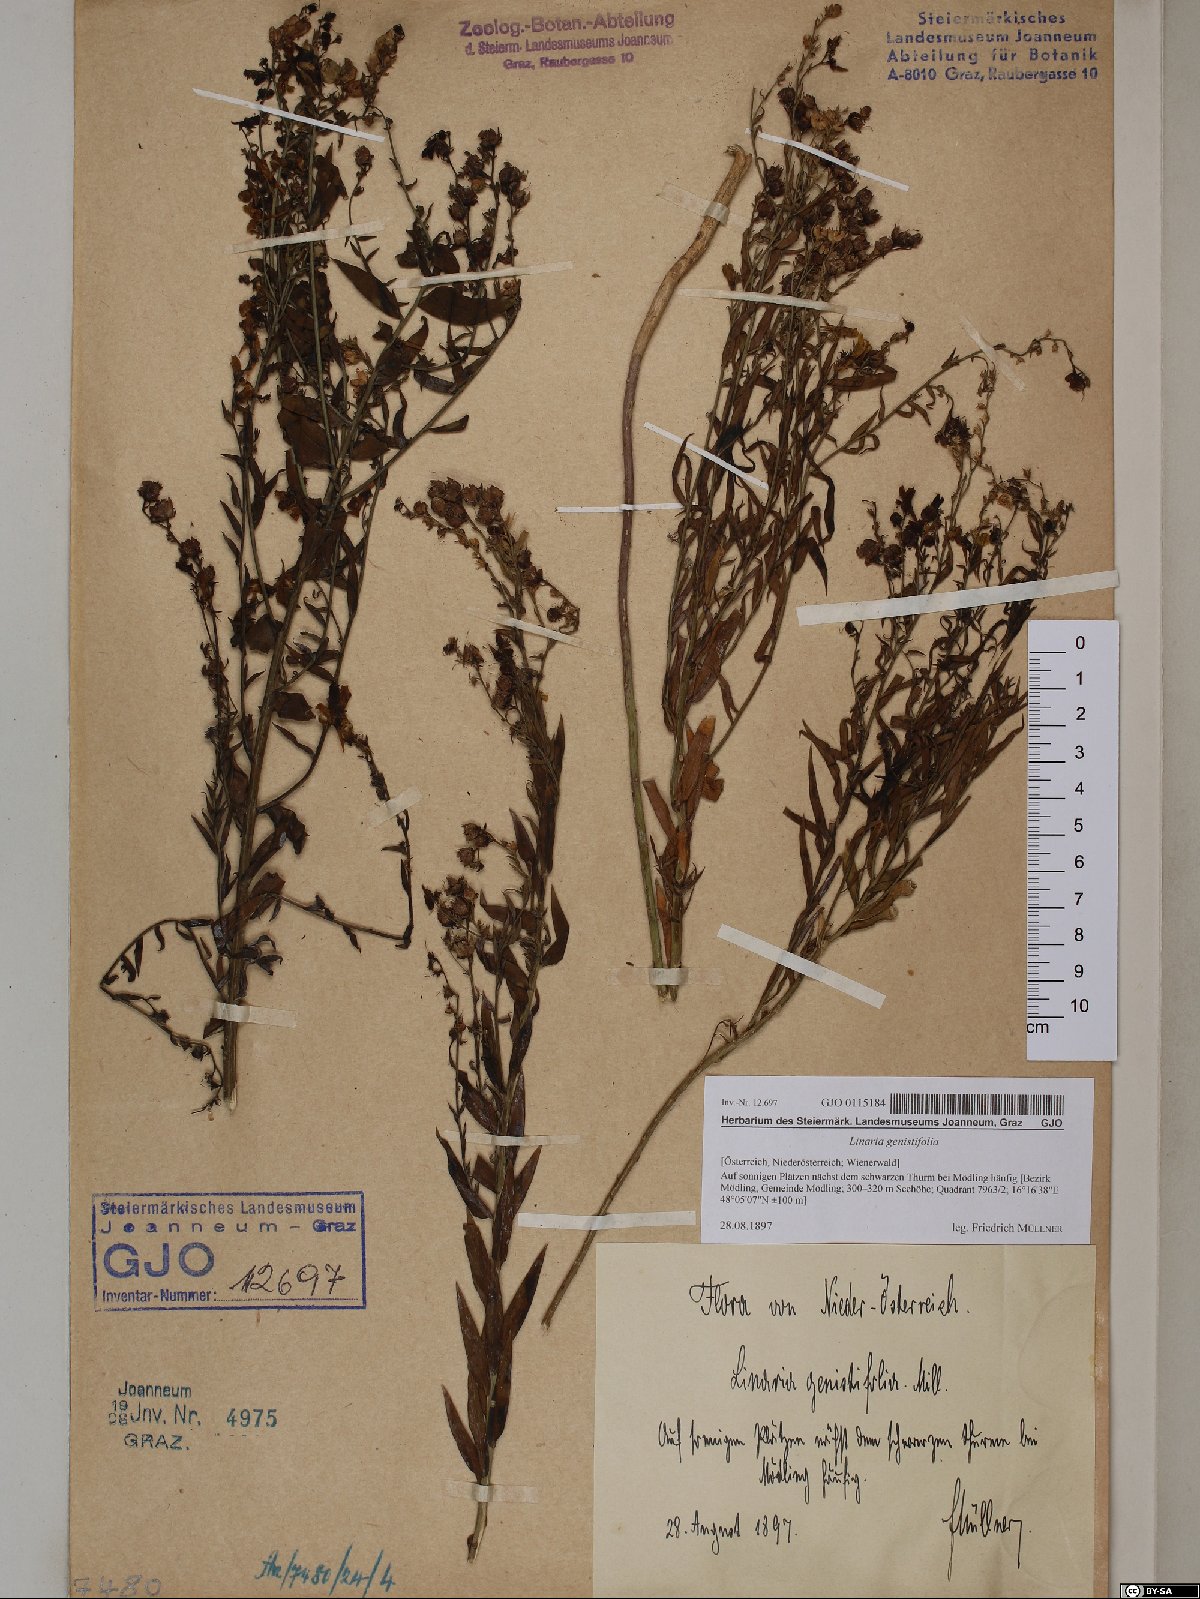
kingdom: Plantae
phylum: Tracheophyta
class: Magnoliopsida
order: Lamiales
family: Plantaginaceae
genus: Linaria
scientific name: Linaria genistifolia
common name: Broomleaf toadflax
